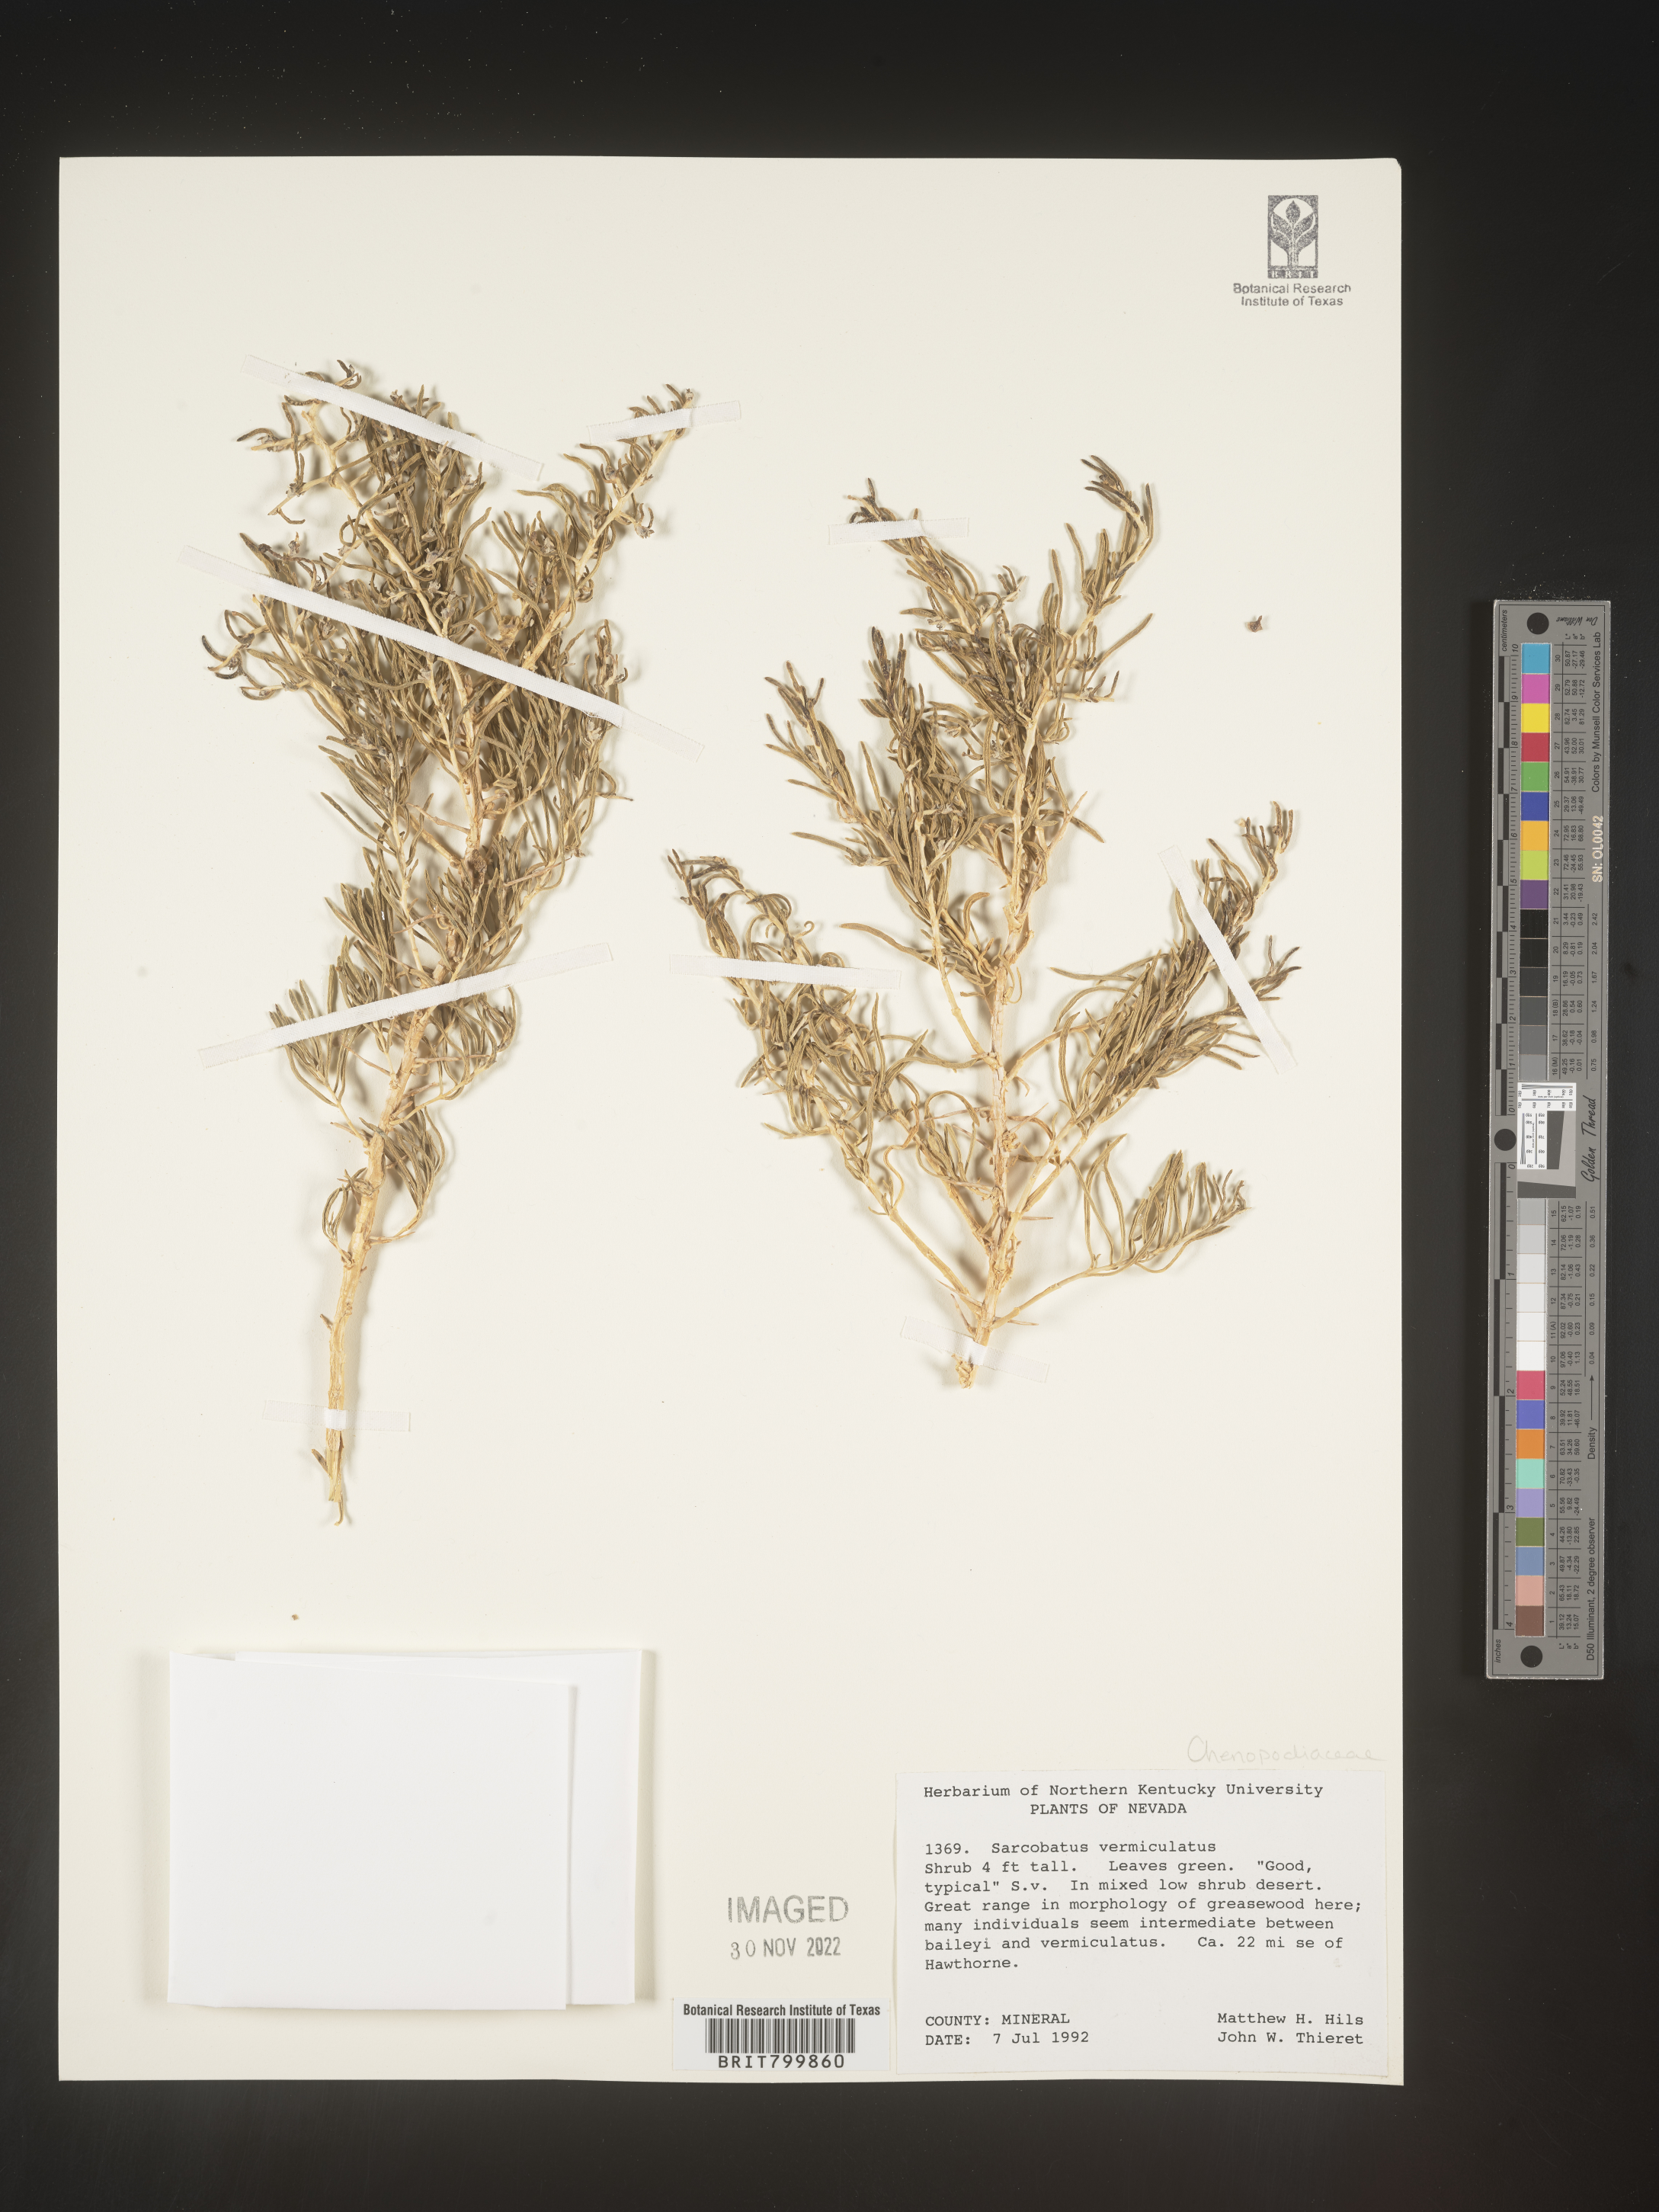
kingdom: Plantae
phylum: Tracheophyta
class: Magnoliopsida
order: Caryophyllales
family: Sarcobataceae
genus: Sarcobatus
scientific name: Sarcobatus vermiculatus
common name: Greasewood
